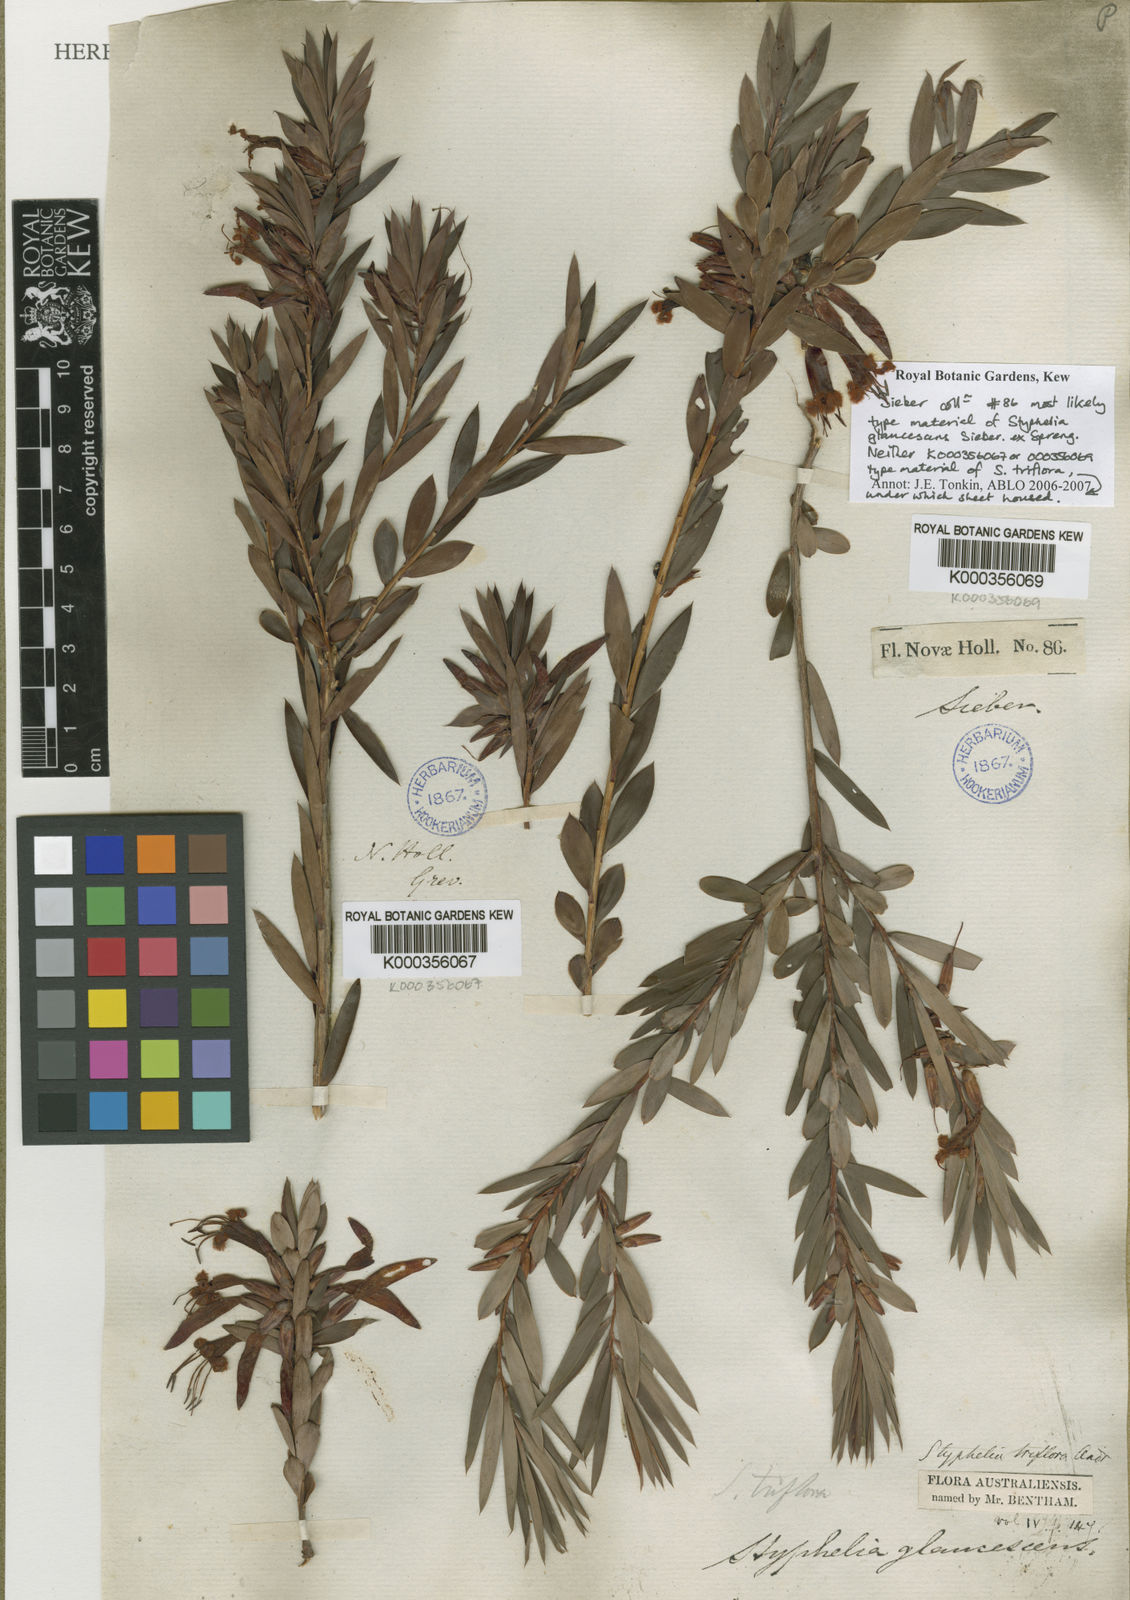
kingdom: Plantae
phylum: Tracheophyta
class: Magnoliopsida
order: Ericales
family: Ericaceae
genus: Styphelia
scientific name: Styphelia triflora
